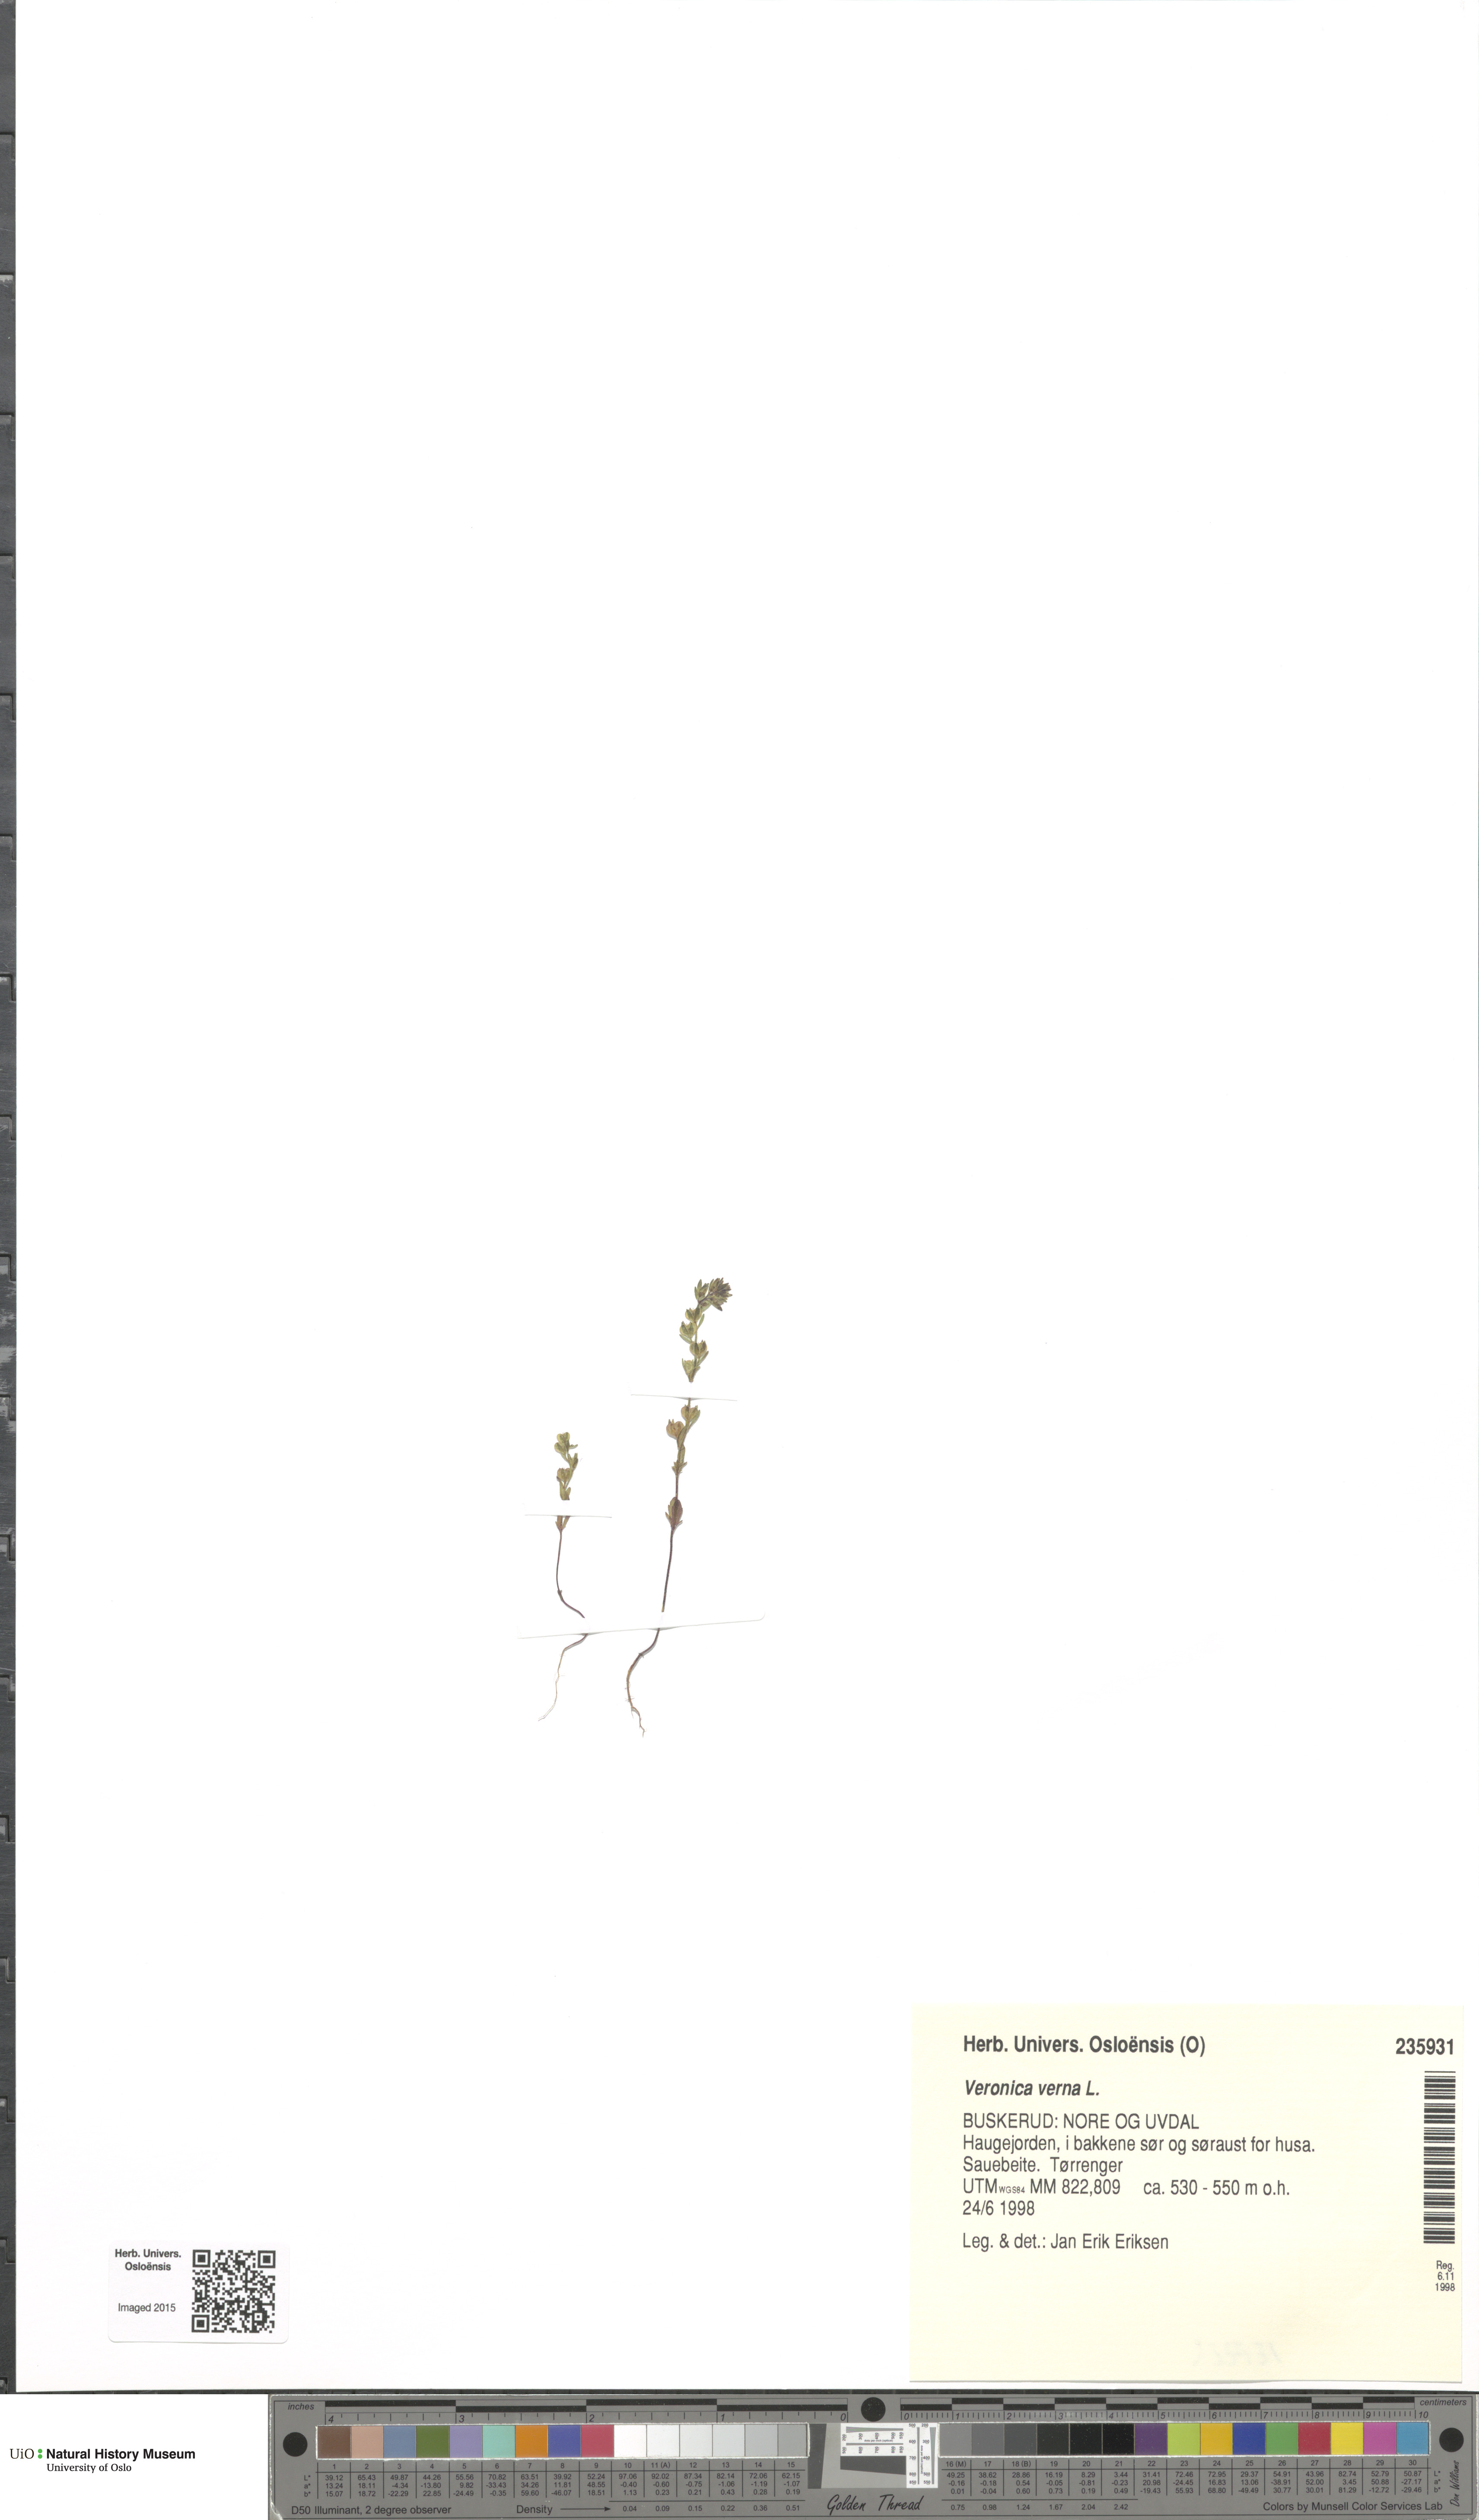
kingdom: Plantae
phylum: Tracheophyta
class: Magnoliopsida
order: Lamiales
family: Plantaginaceae
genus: Veronica
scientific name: Veronica verna
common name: Spring speedwell
